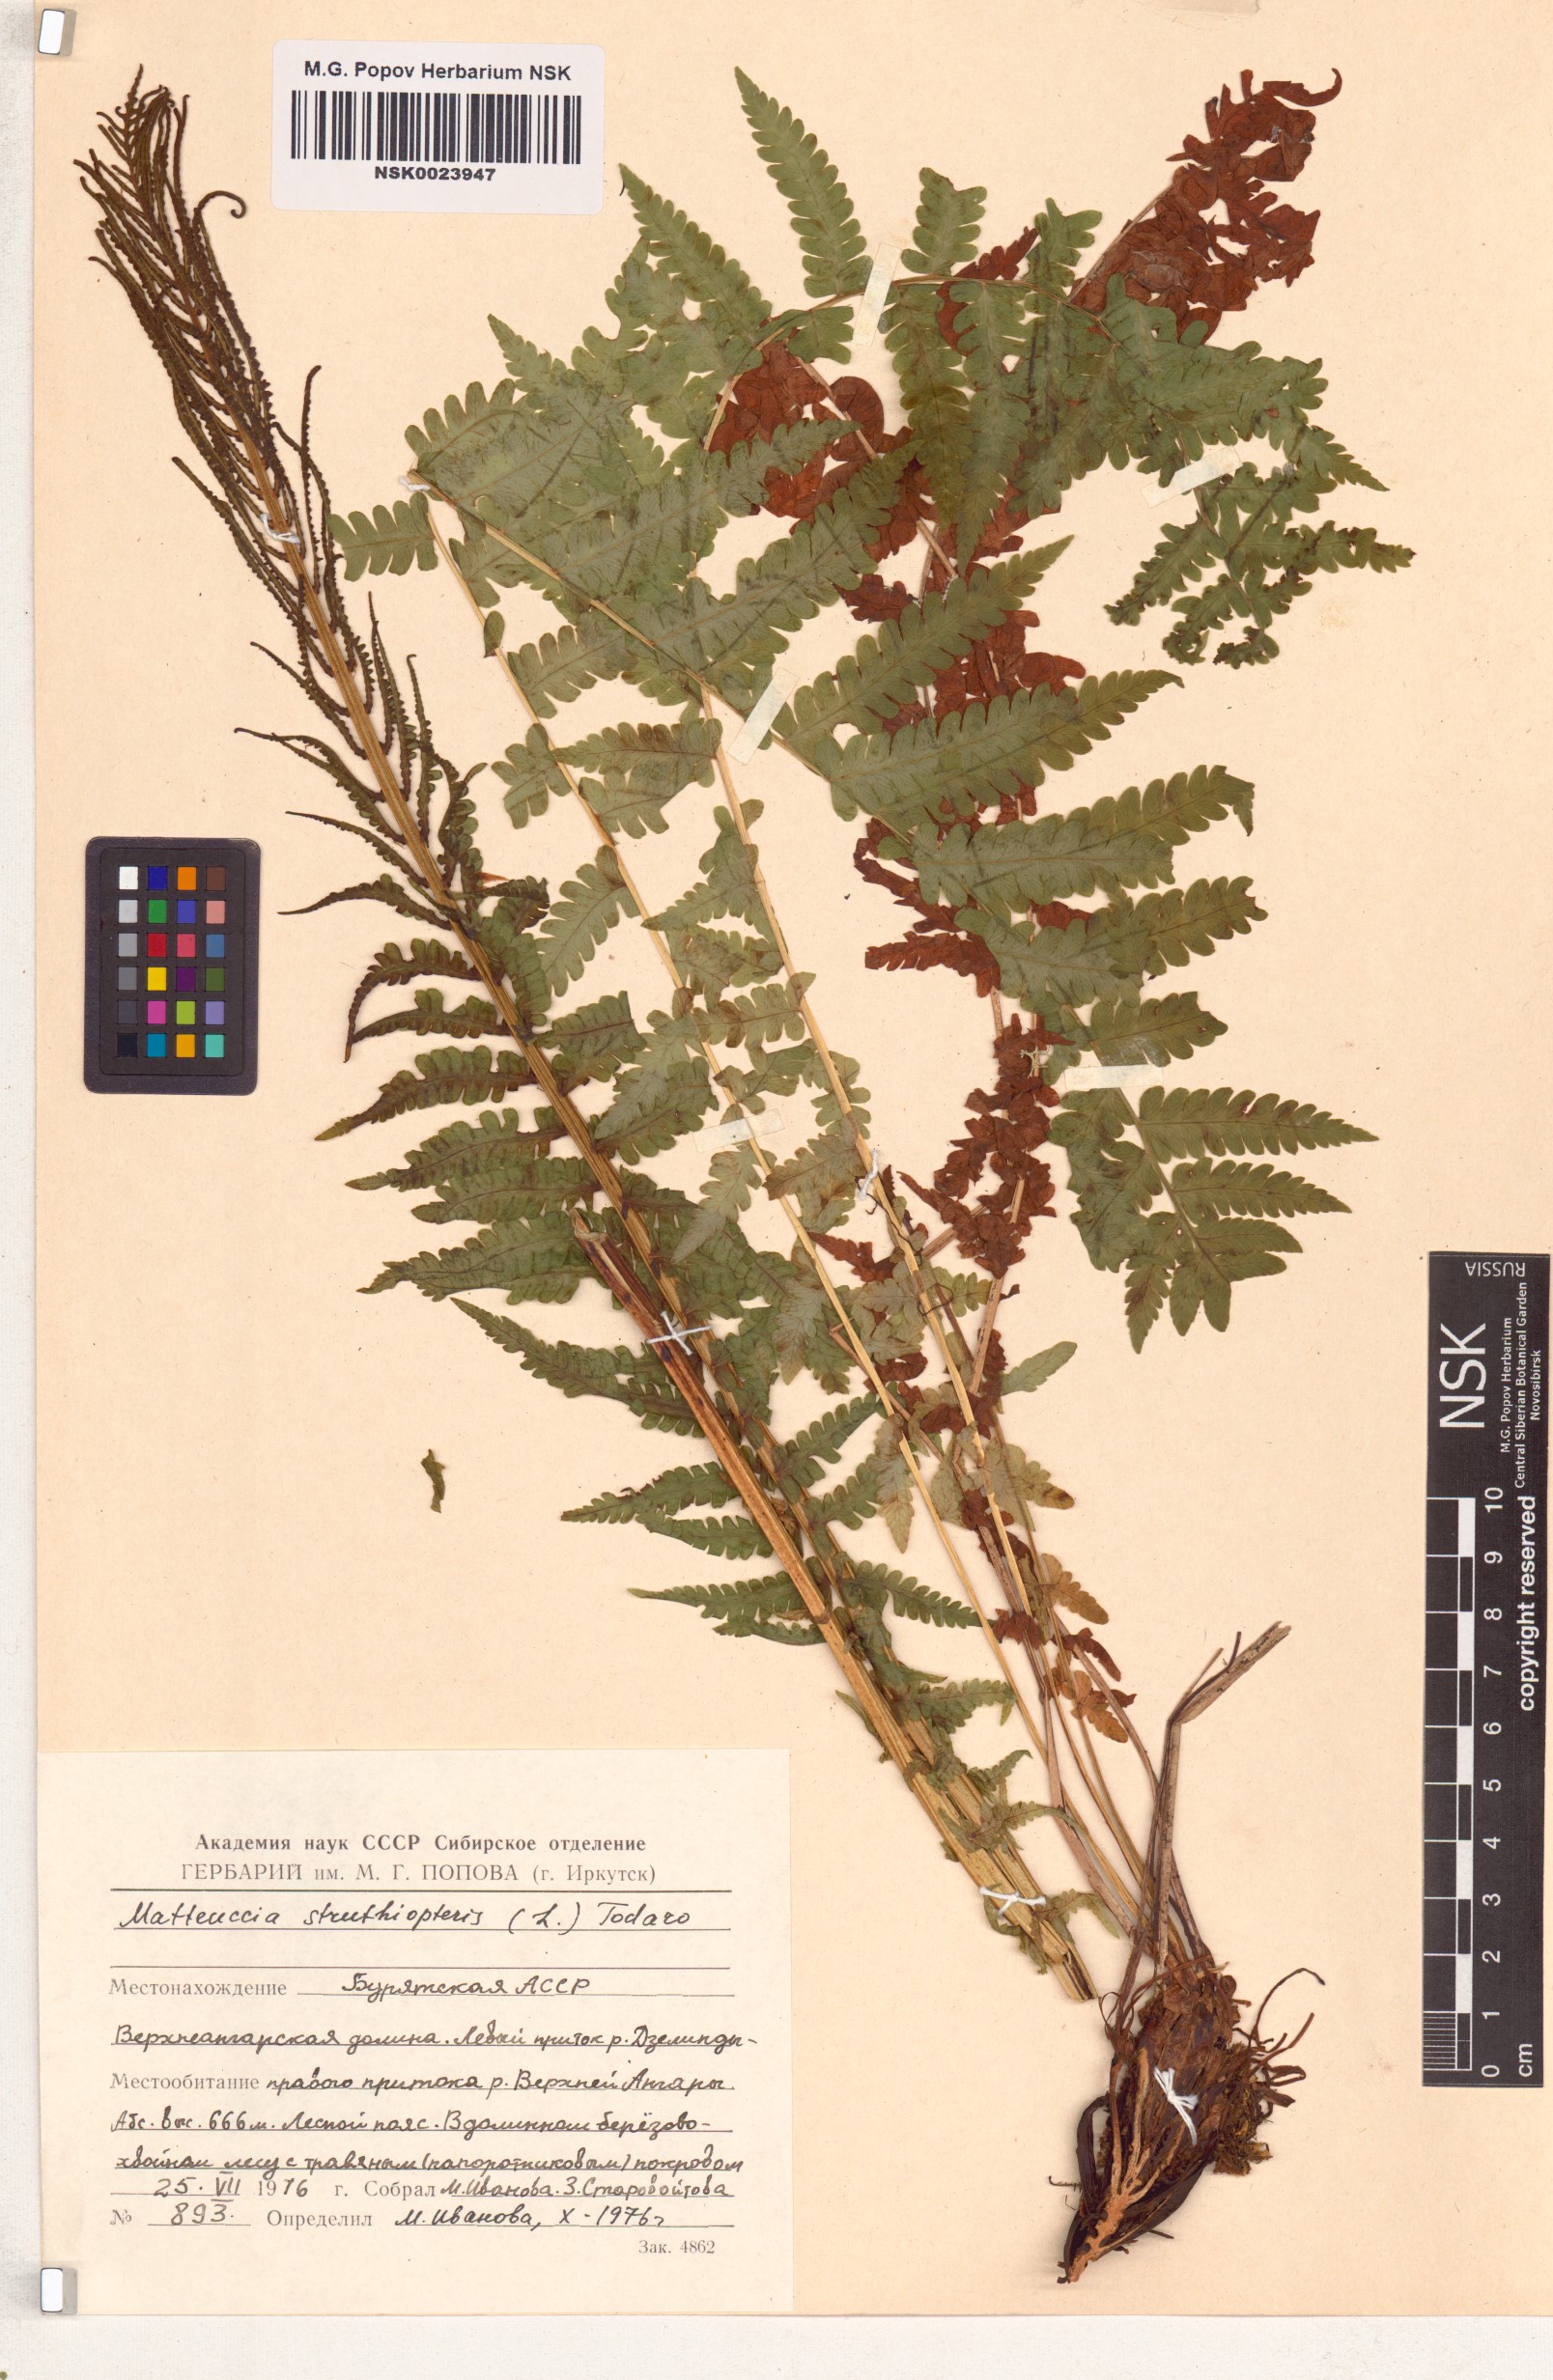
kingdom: Plantae
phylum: Tracheophyta
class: Polypodiopsida
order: Polypodiales
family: Onocleaceae
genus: Matteuccia
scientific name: Matteuccia struthiopteris
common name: Ostrich fern
